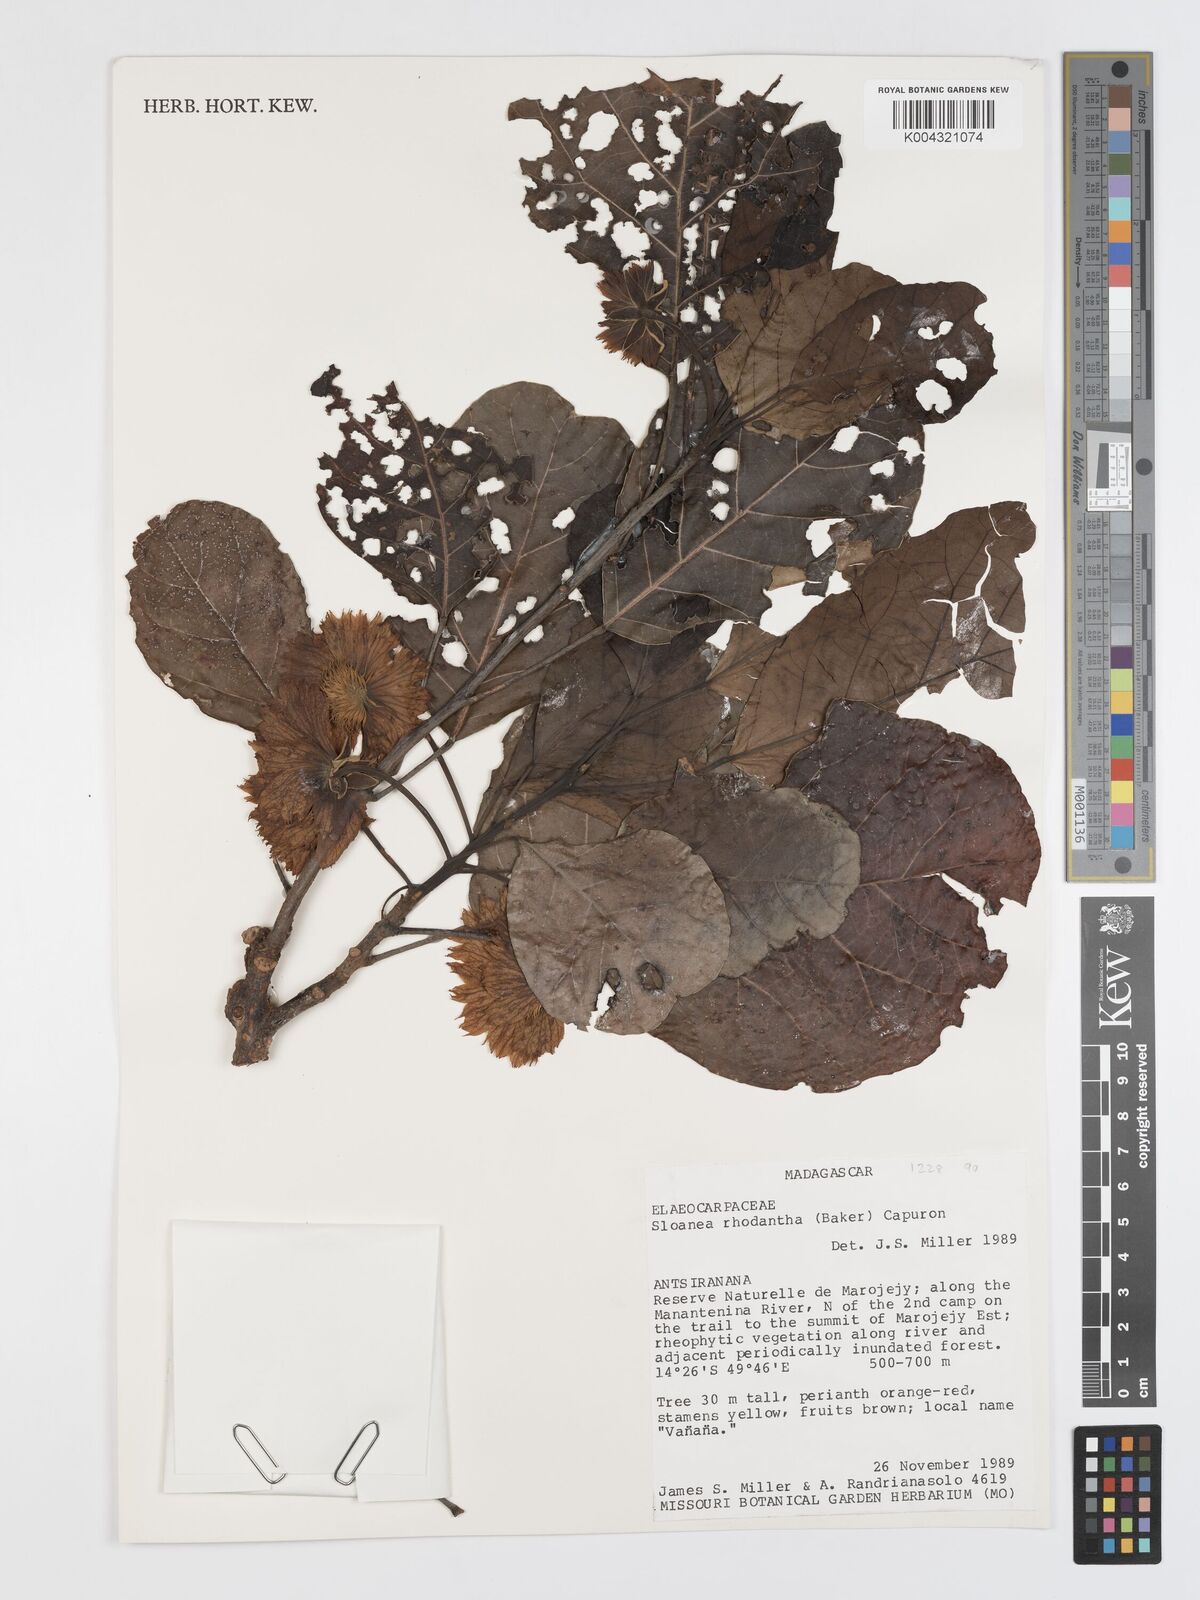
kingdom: Plantae
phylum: Tracheophyta
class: Magnoliopsida
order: Oxalidales
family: Elaeocarpaceae
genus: Sloanea
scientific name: Sloanea rhodantha
